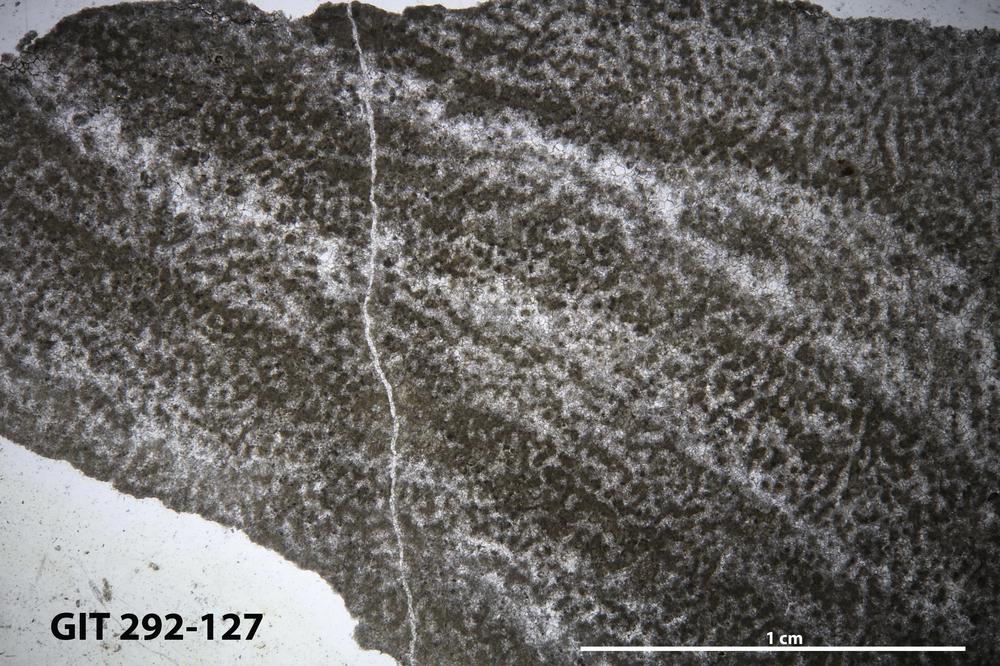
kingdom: Animalia
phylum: Porifera
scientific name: Porifera
